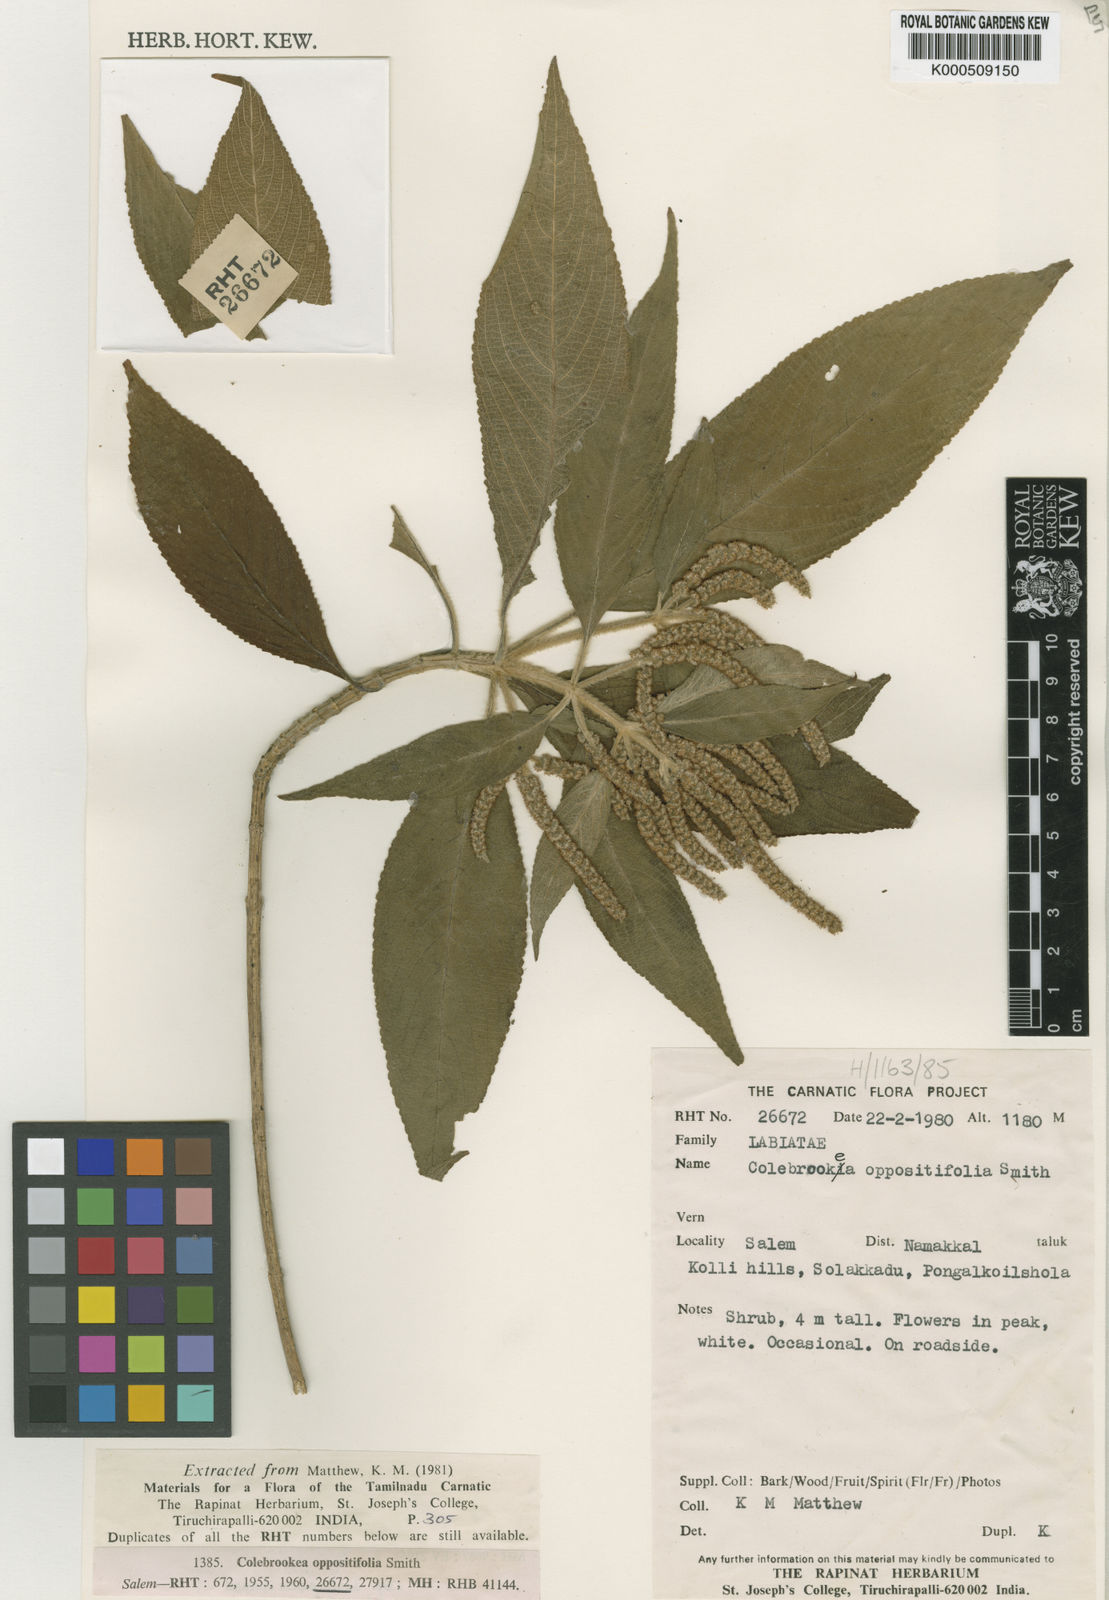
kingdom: Plantae
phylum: Tracheophyta
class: Magnoliopsida
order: Lamiales
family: Lamiaceae
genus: Colebrookea
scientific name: Colebrookea oppositifolia
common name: Indian squirrel tail
